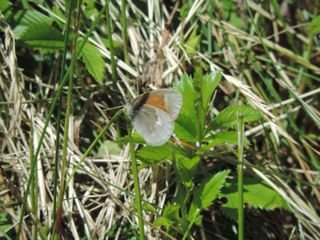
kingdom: Animalia
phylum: Arthropoda
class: Insecta
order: Lepidoptera
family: Nymphalidae
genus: Coenonympha
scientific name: Coenonympha tullia
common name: Large Heath
